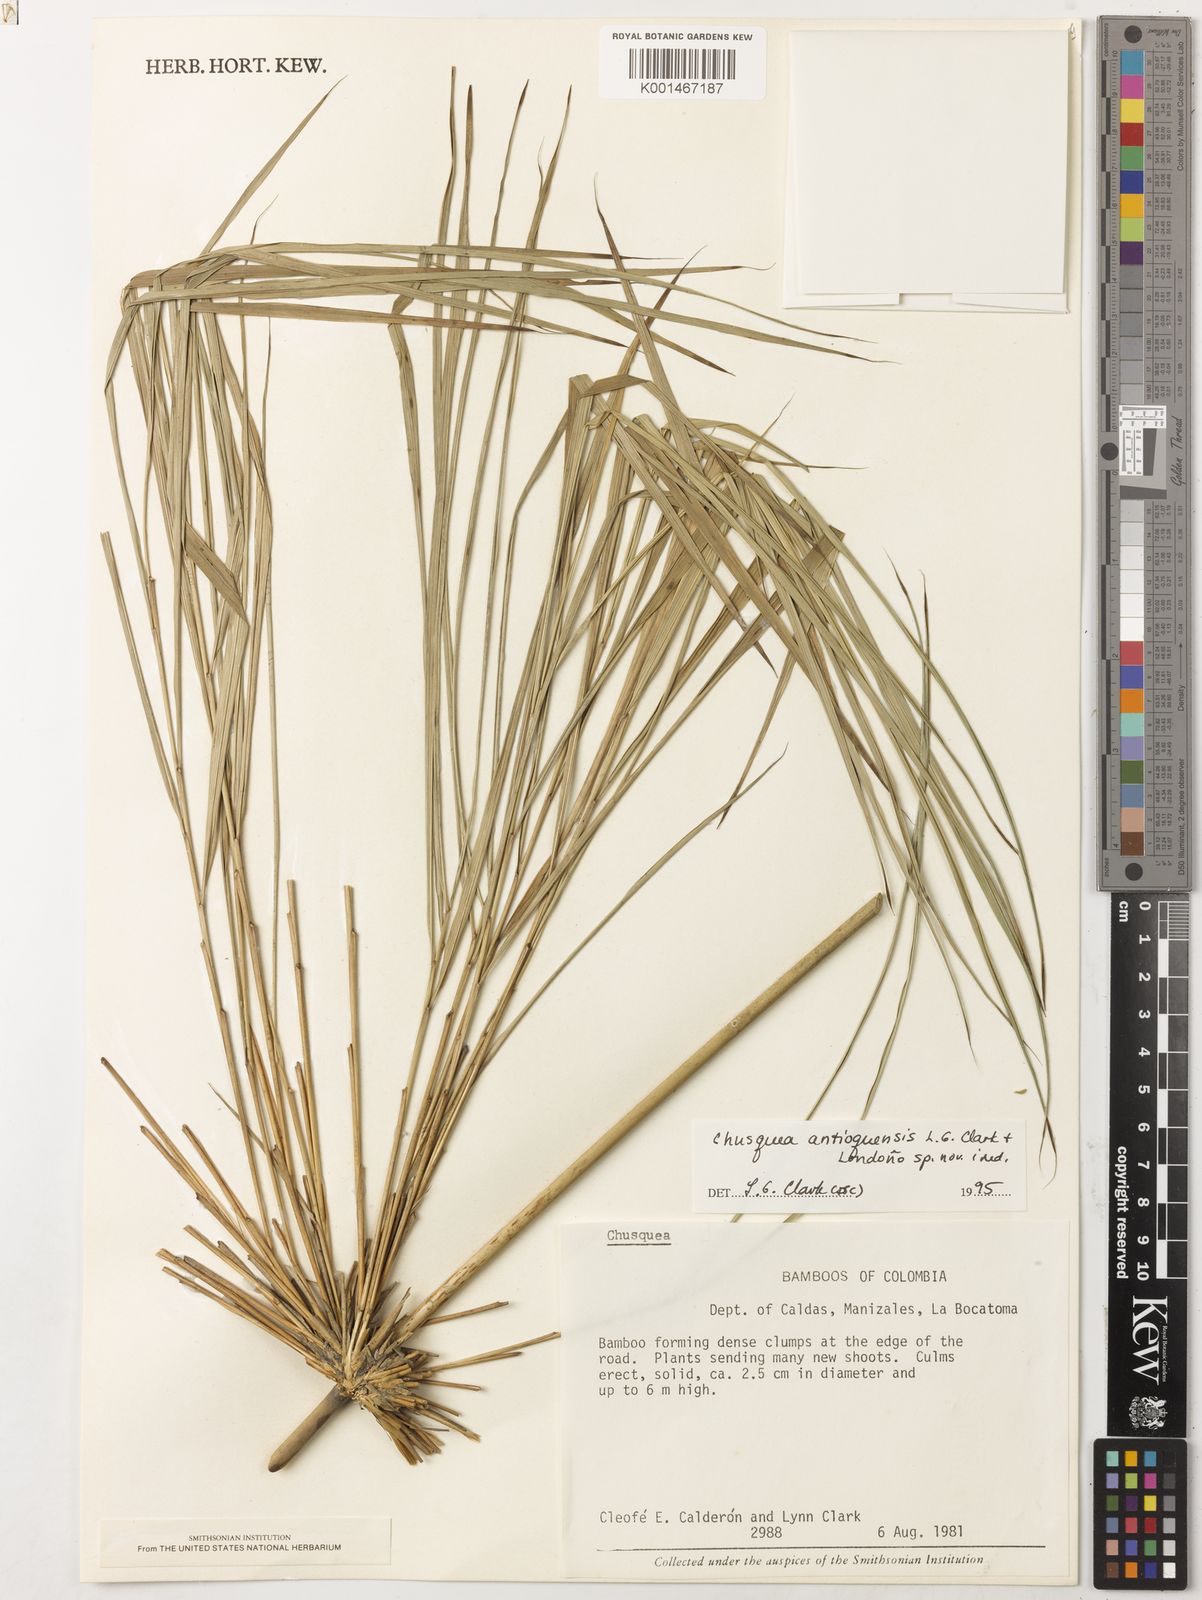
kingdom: Plantae
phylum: Tracheophyta
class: Liliopsida
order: Poales
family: Poaceae
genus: Chusquea
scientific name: Chusquea
